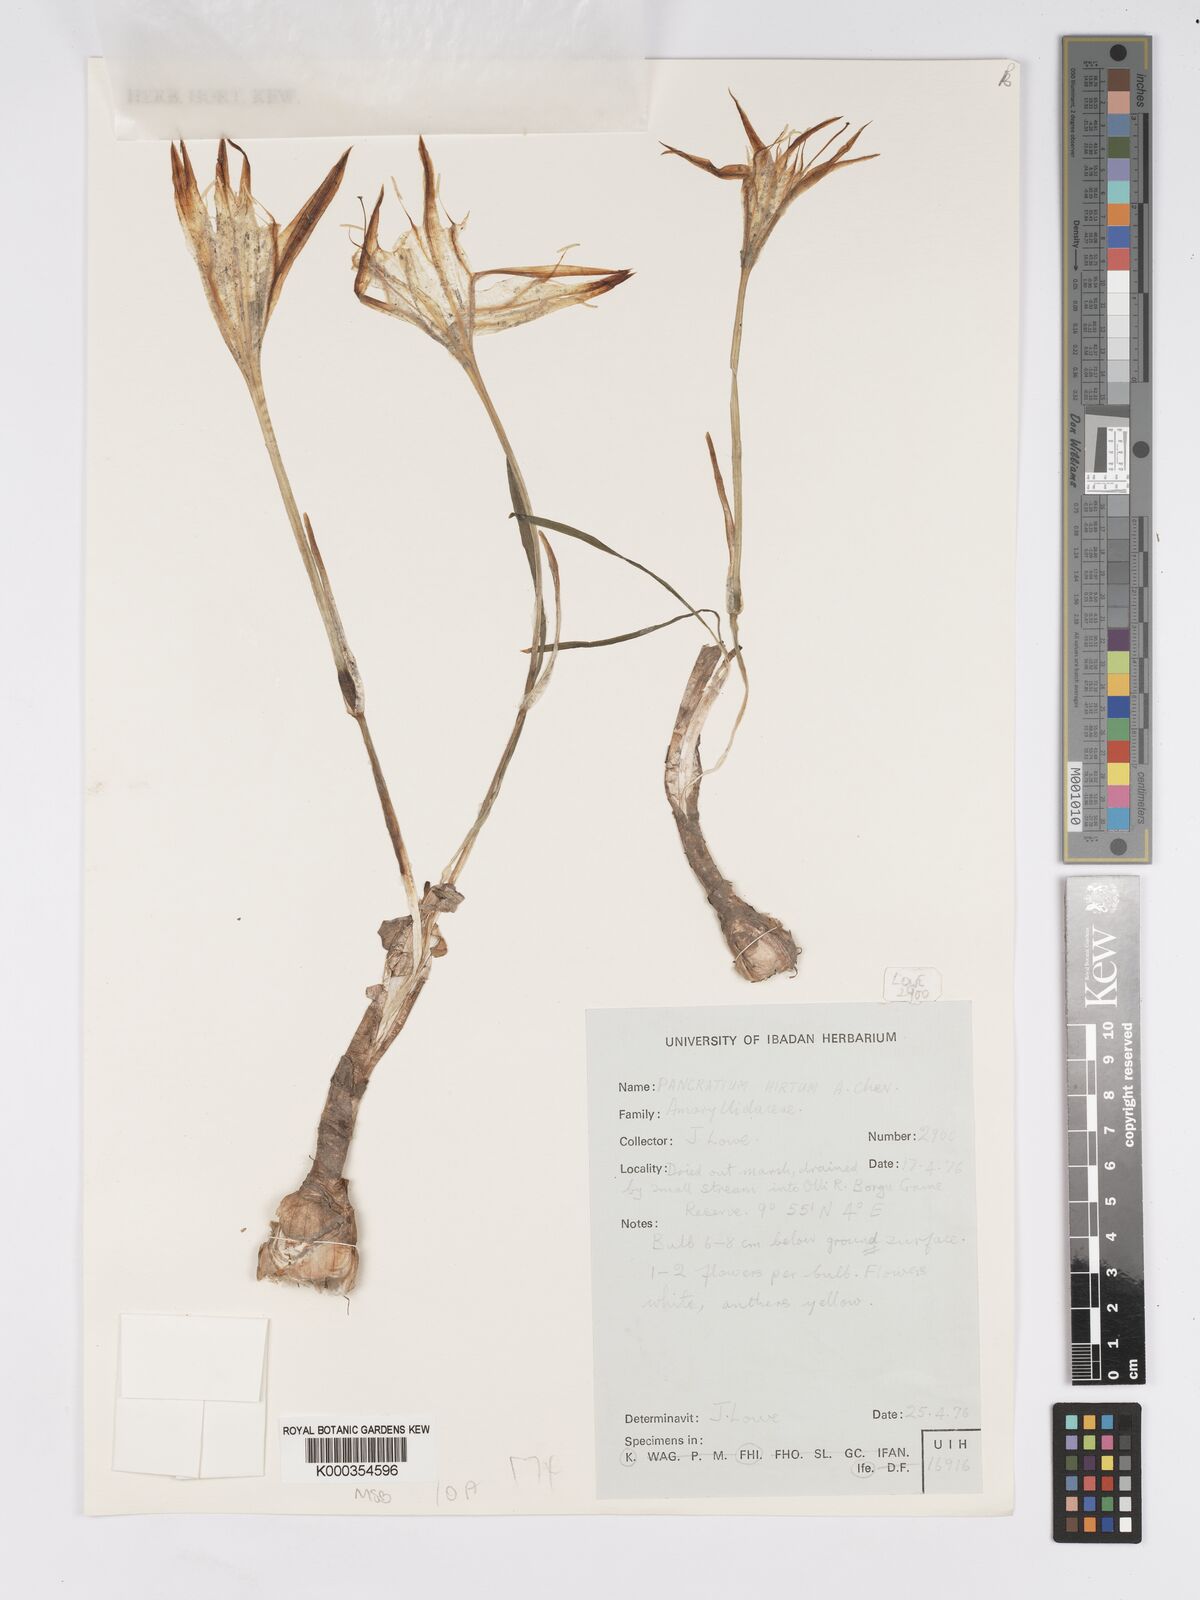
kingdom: Plantae
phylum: Tracheophyta
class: Liliopsida
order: Asparagales
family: Amaryllidaceae
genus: Pancratium
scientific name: Pancratium tenuifolium
